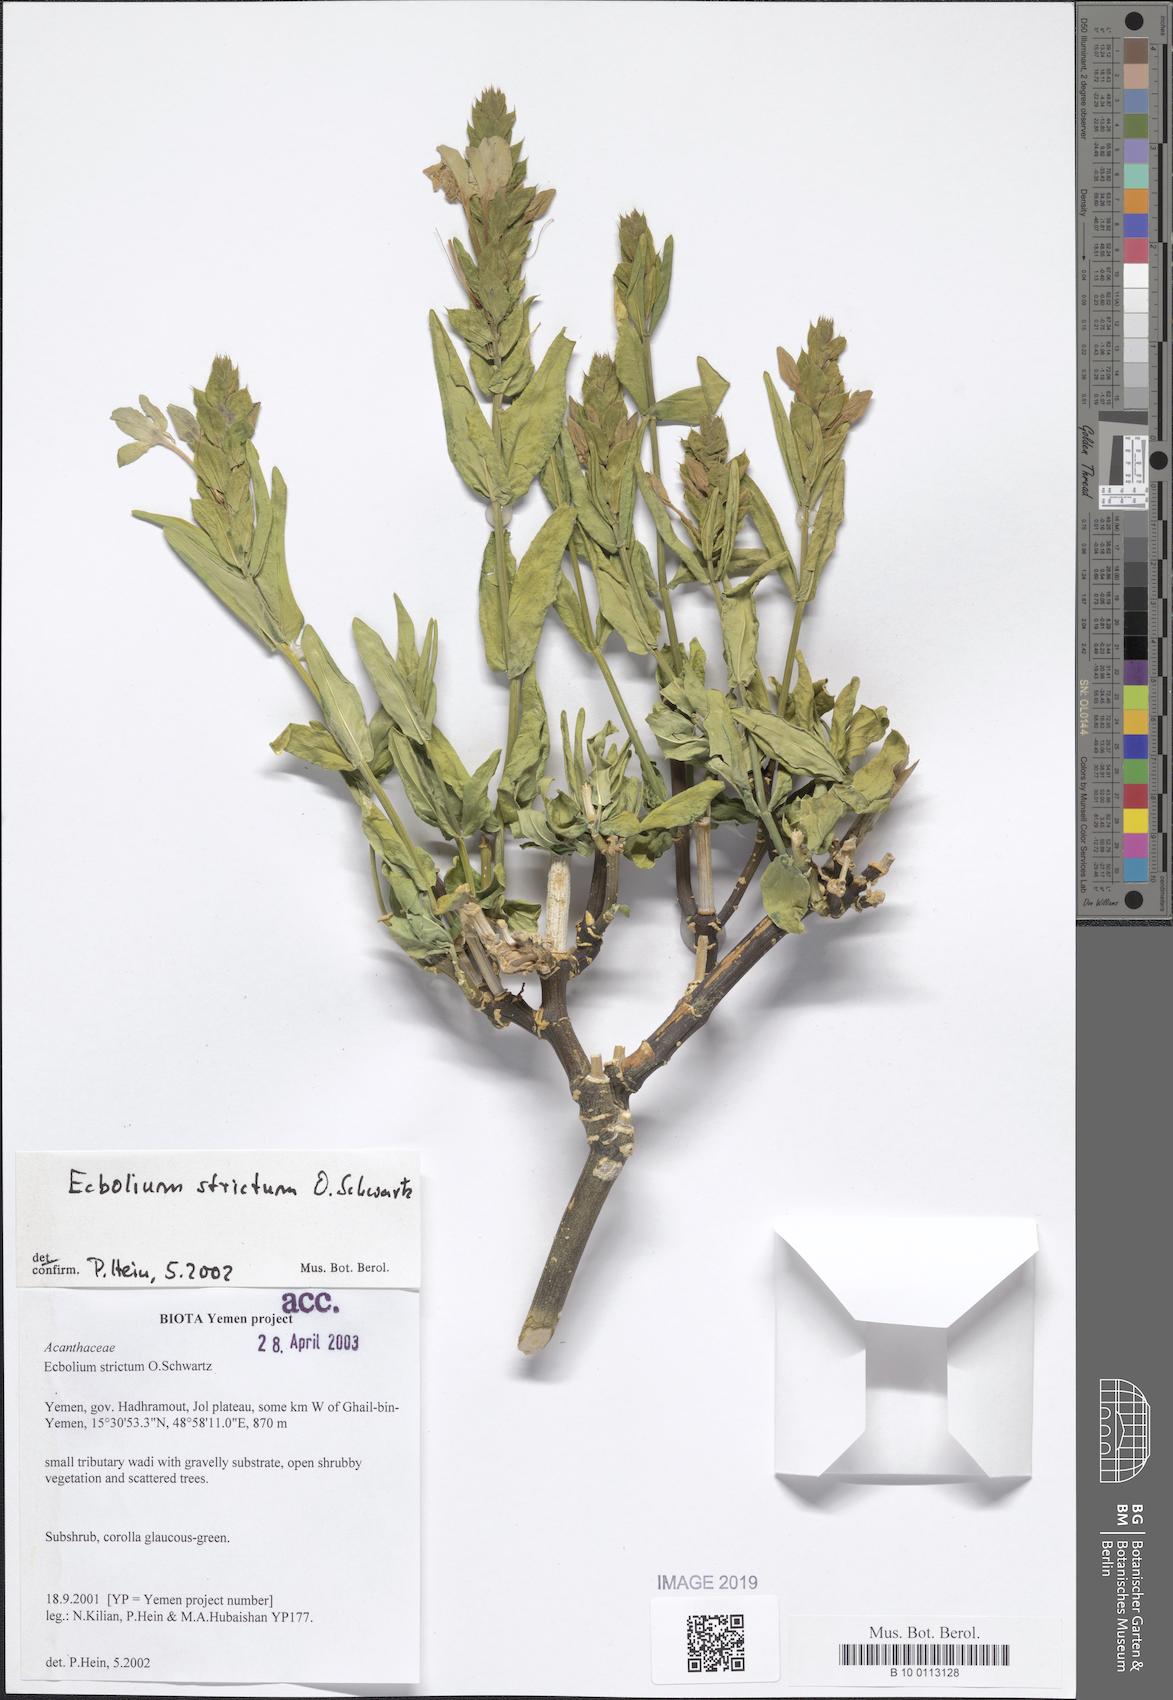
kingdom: Plantae
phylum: Tracheophyta
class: Magnoliopsida
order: Lamiales
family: Acanthaceae
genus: Ecbolium
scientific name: Ecbolium strictum
